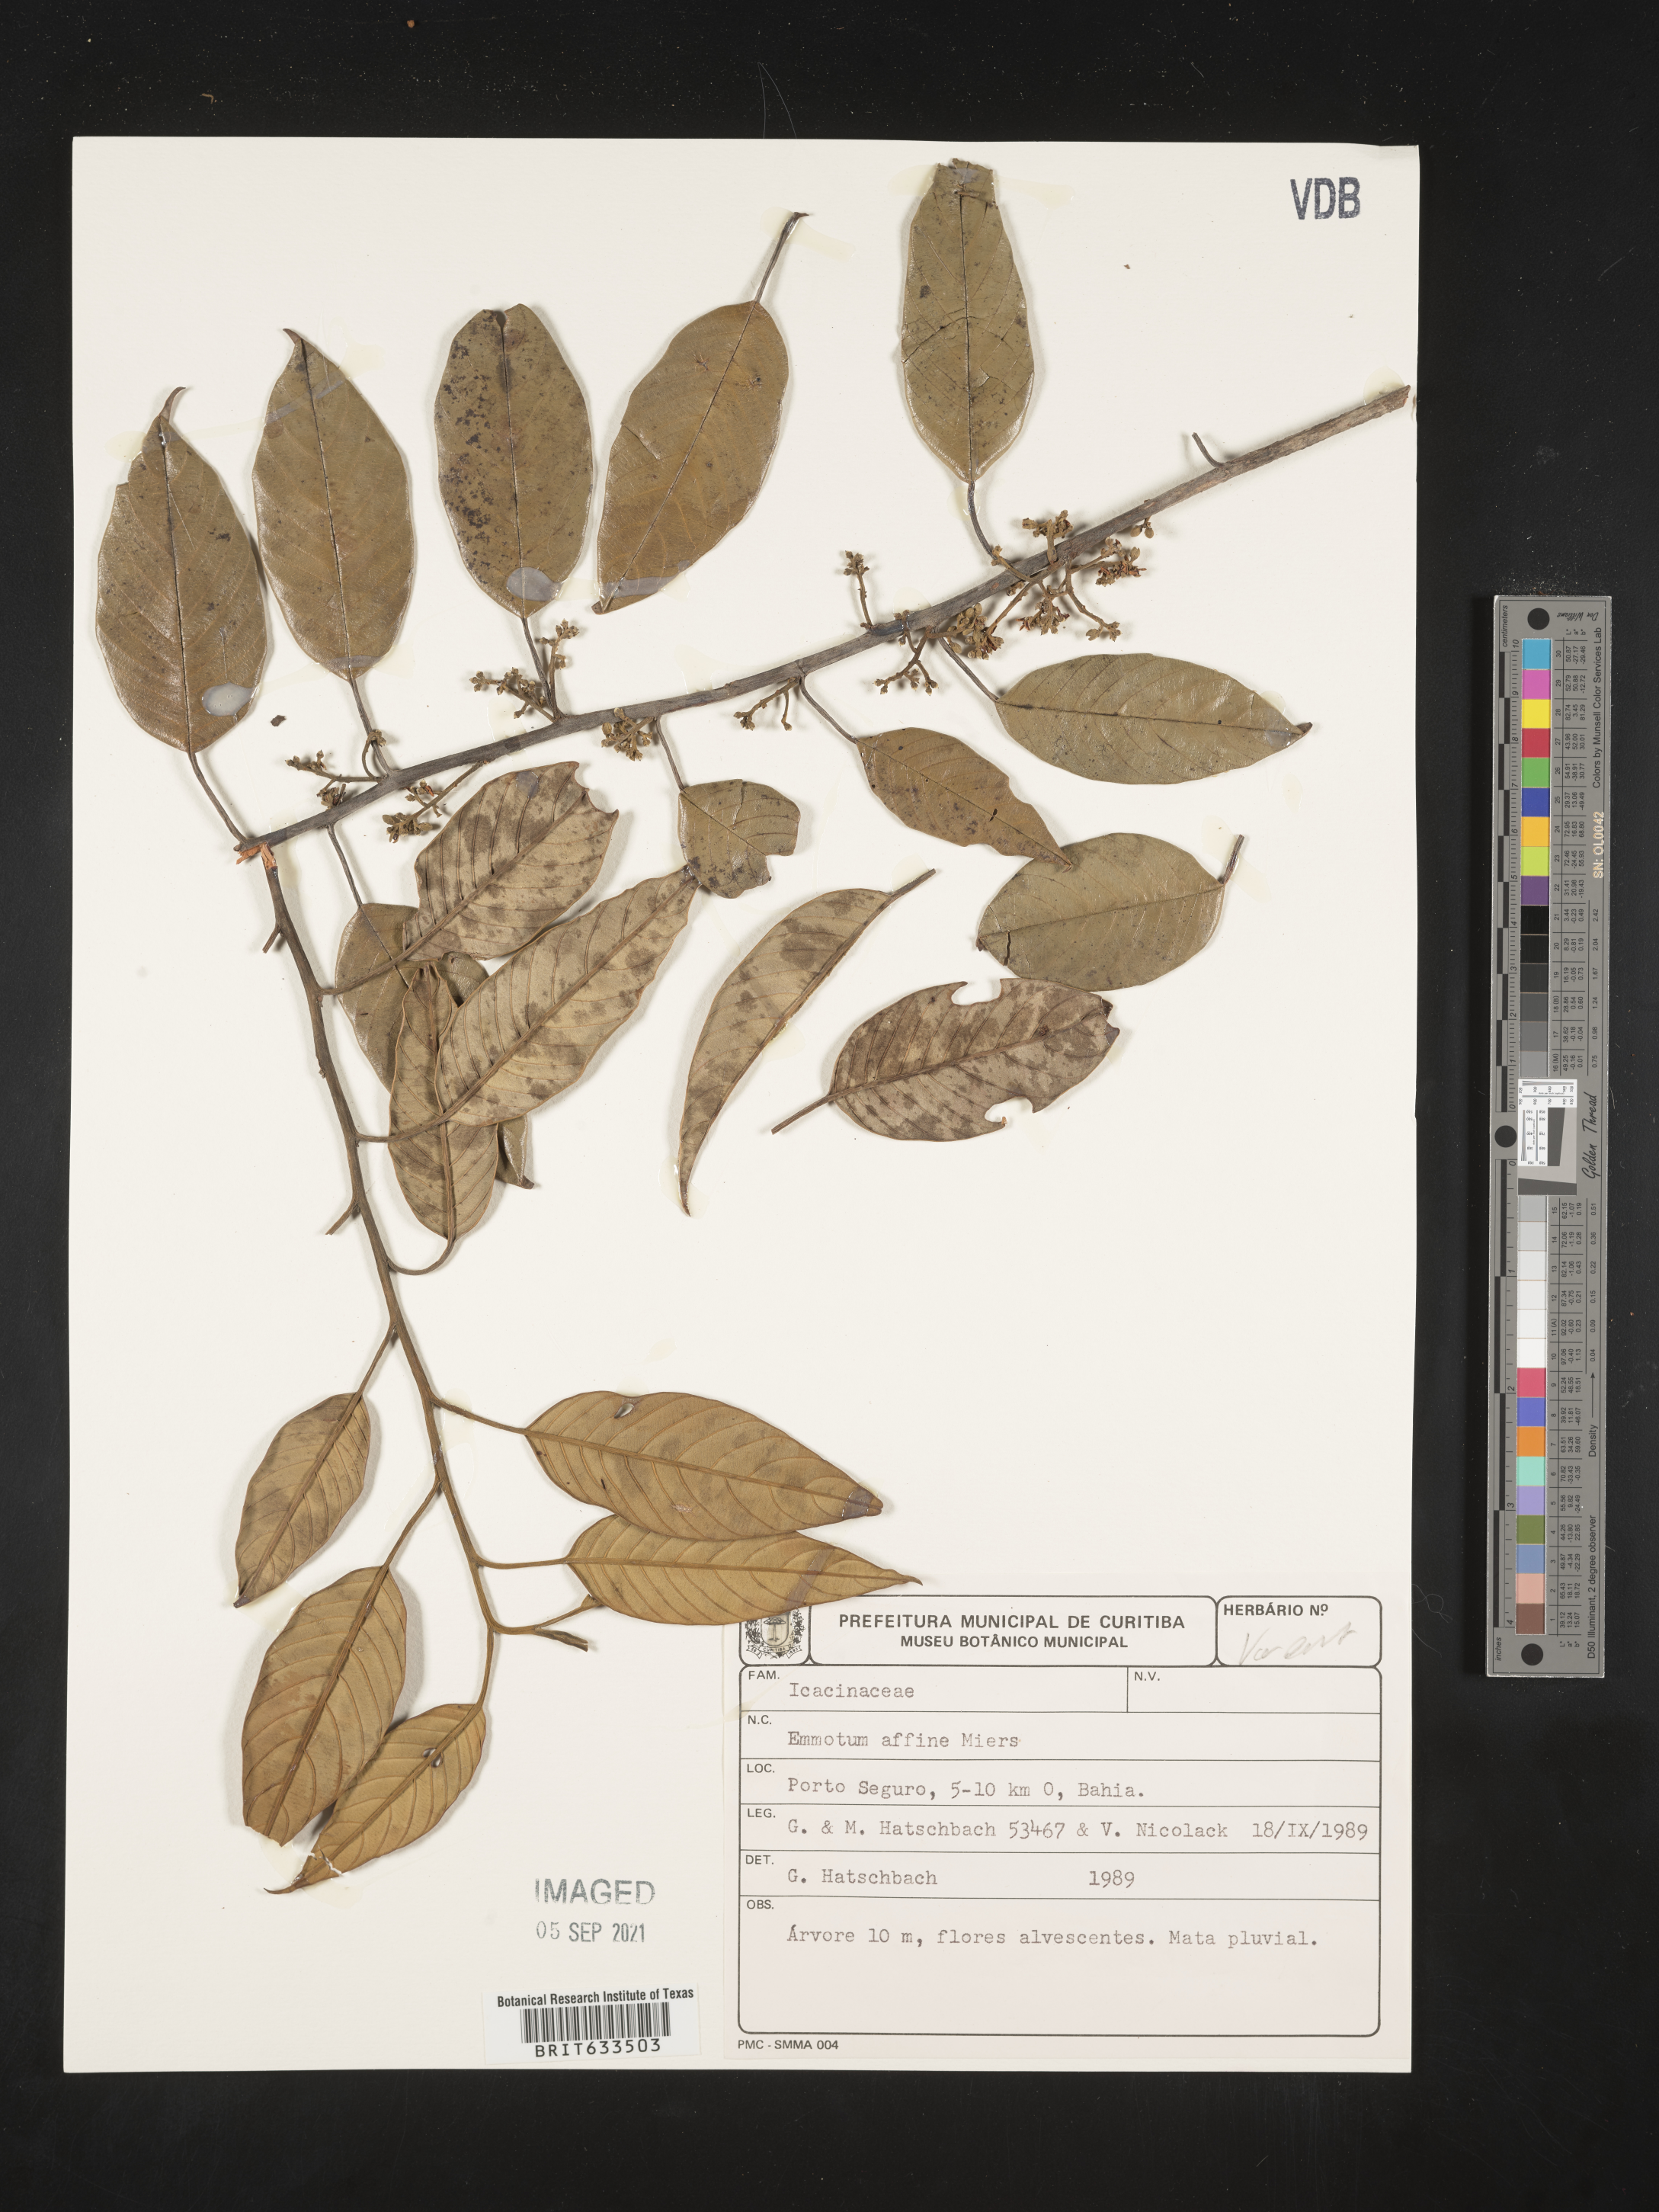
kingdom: Plantae
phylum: Tracheophyta
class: Magnoliopsida
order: Icacinales
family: Icacinaceae
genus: Emmotum
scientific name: Emmotum
